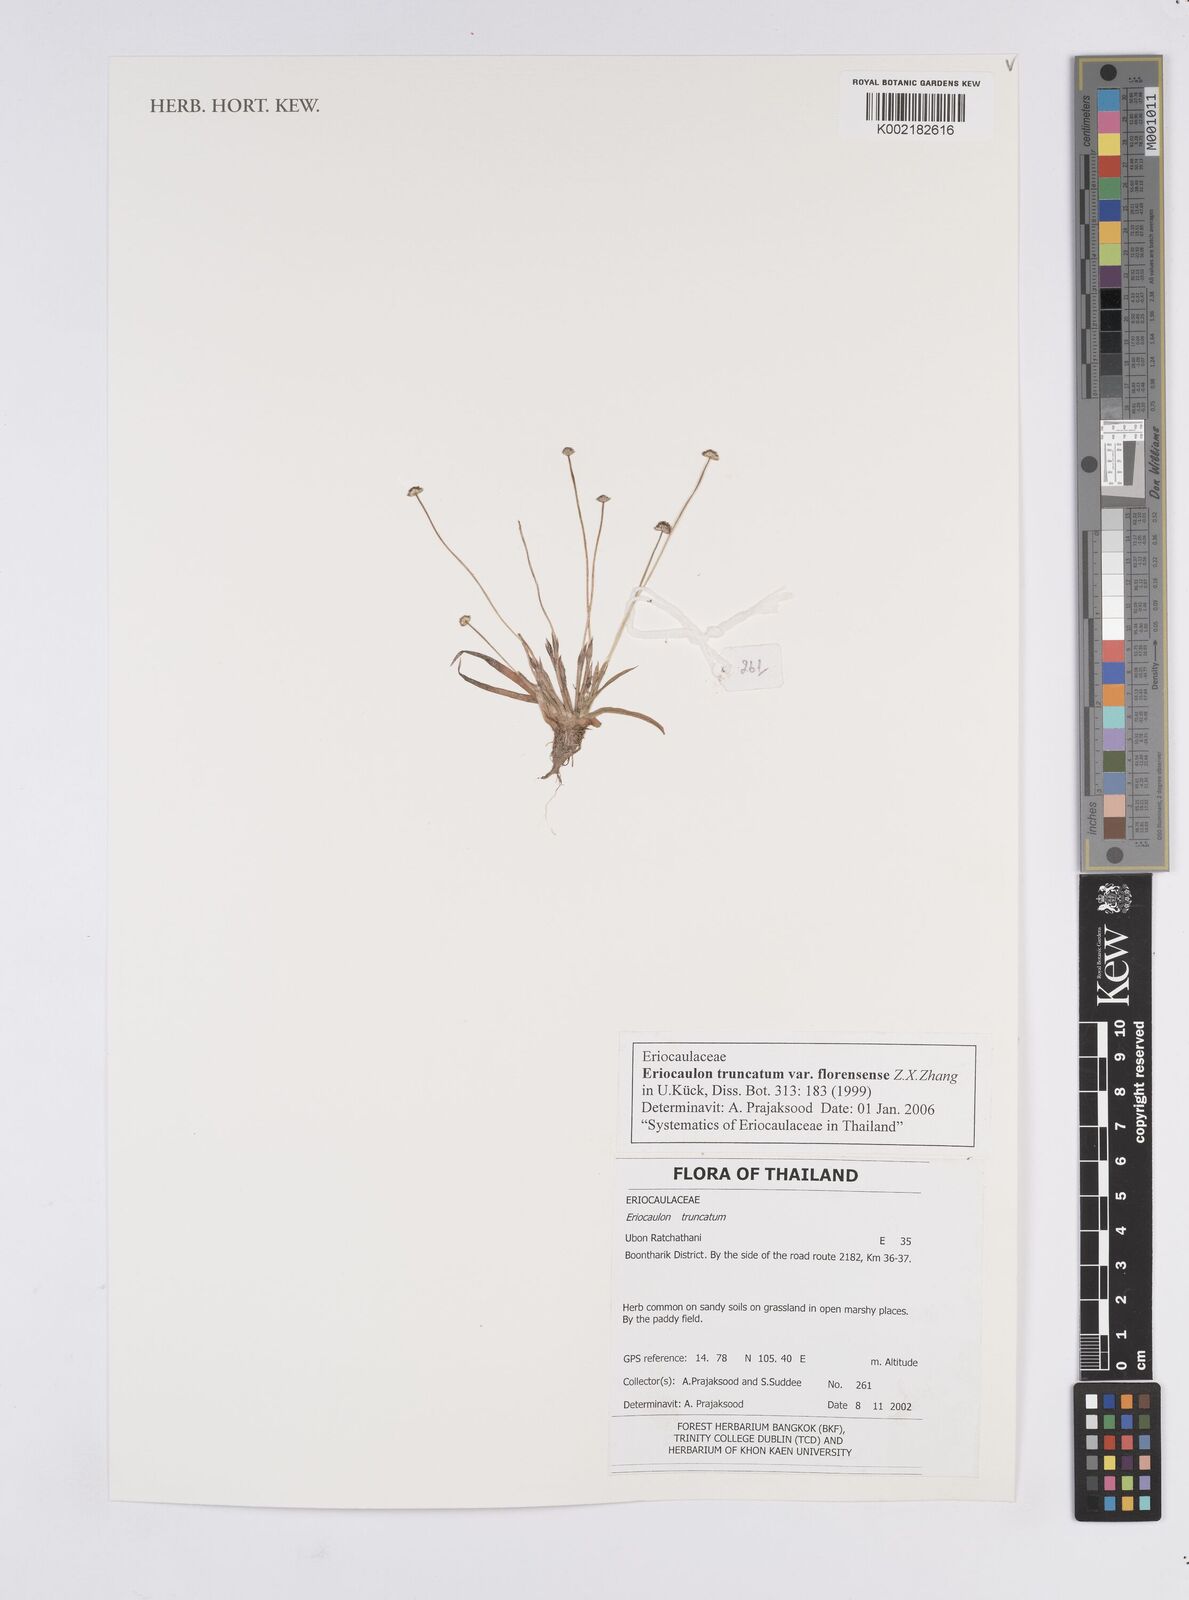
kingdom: Plantae
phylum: Tracheophyta
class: Liliopsida
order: Poales
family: Eriocaulaceae
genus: Eriocaulon
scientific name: Eriocaulon truncatum
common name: Short pipe-wort
